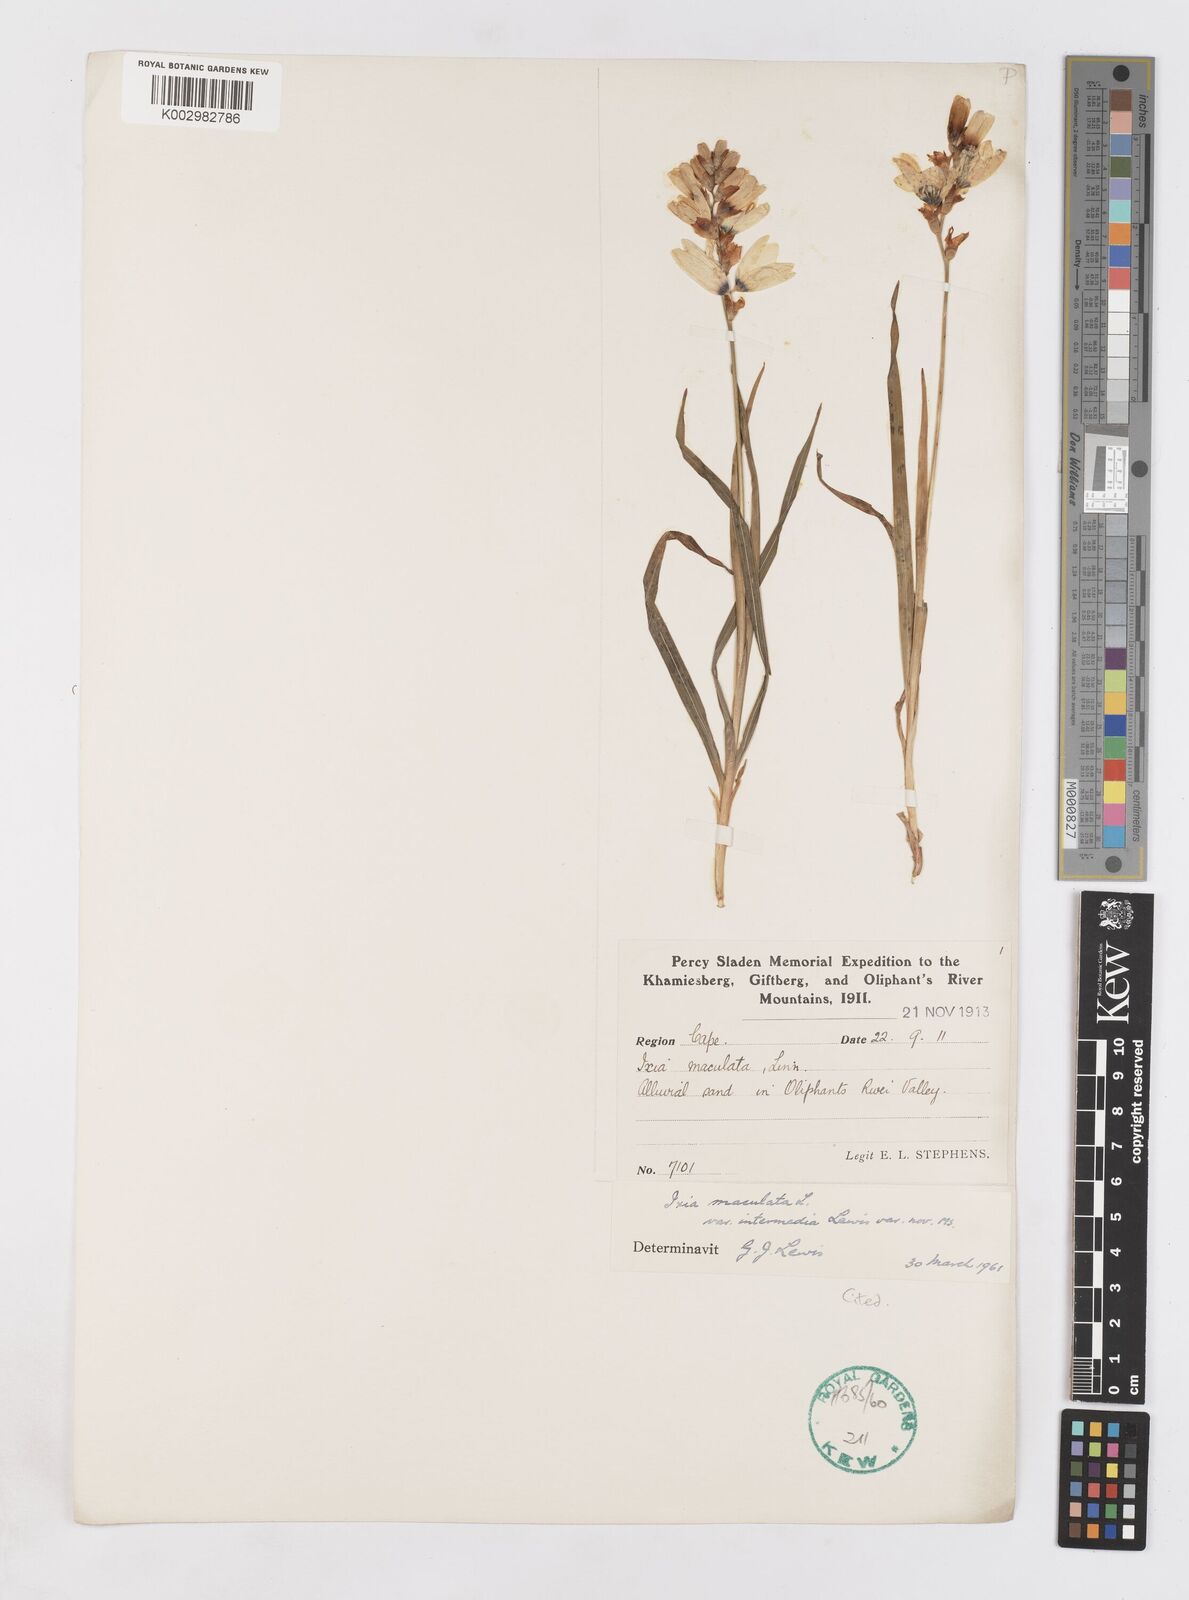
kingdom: Plantae
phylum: Tracheophyta
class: Liliopsida
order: Asparagales
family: Iridaceae
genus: Ixia
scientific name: Ixia maculata
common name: Spotted african cornlily
